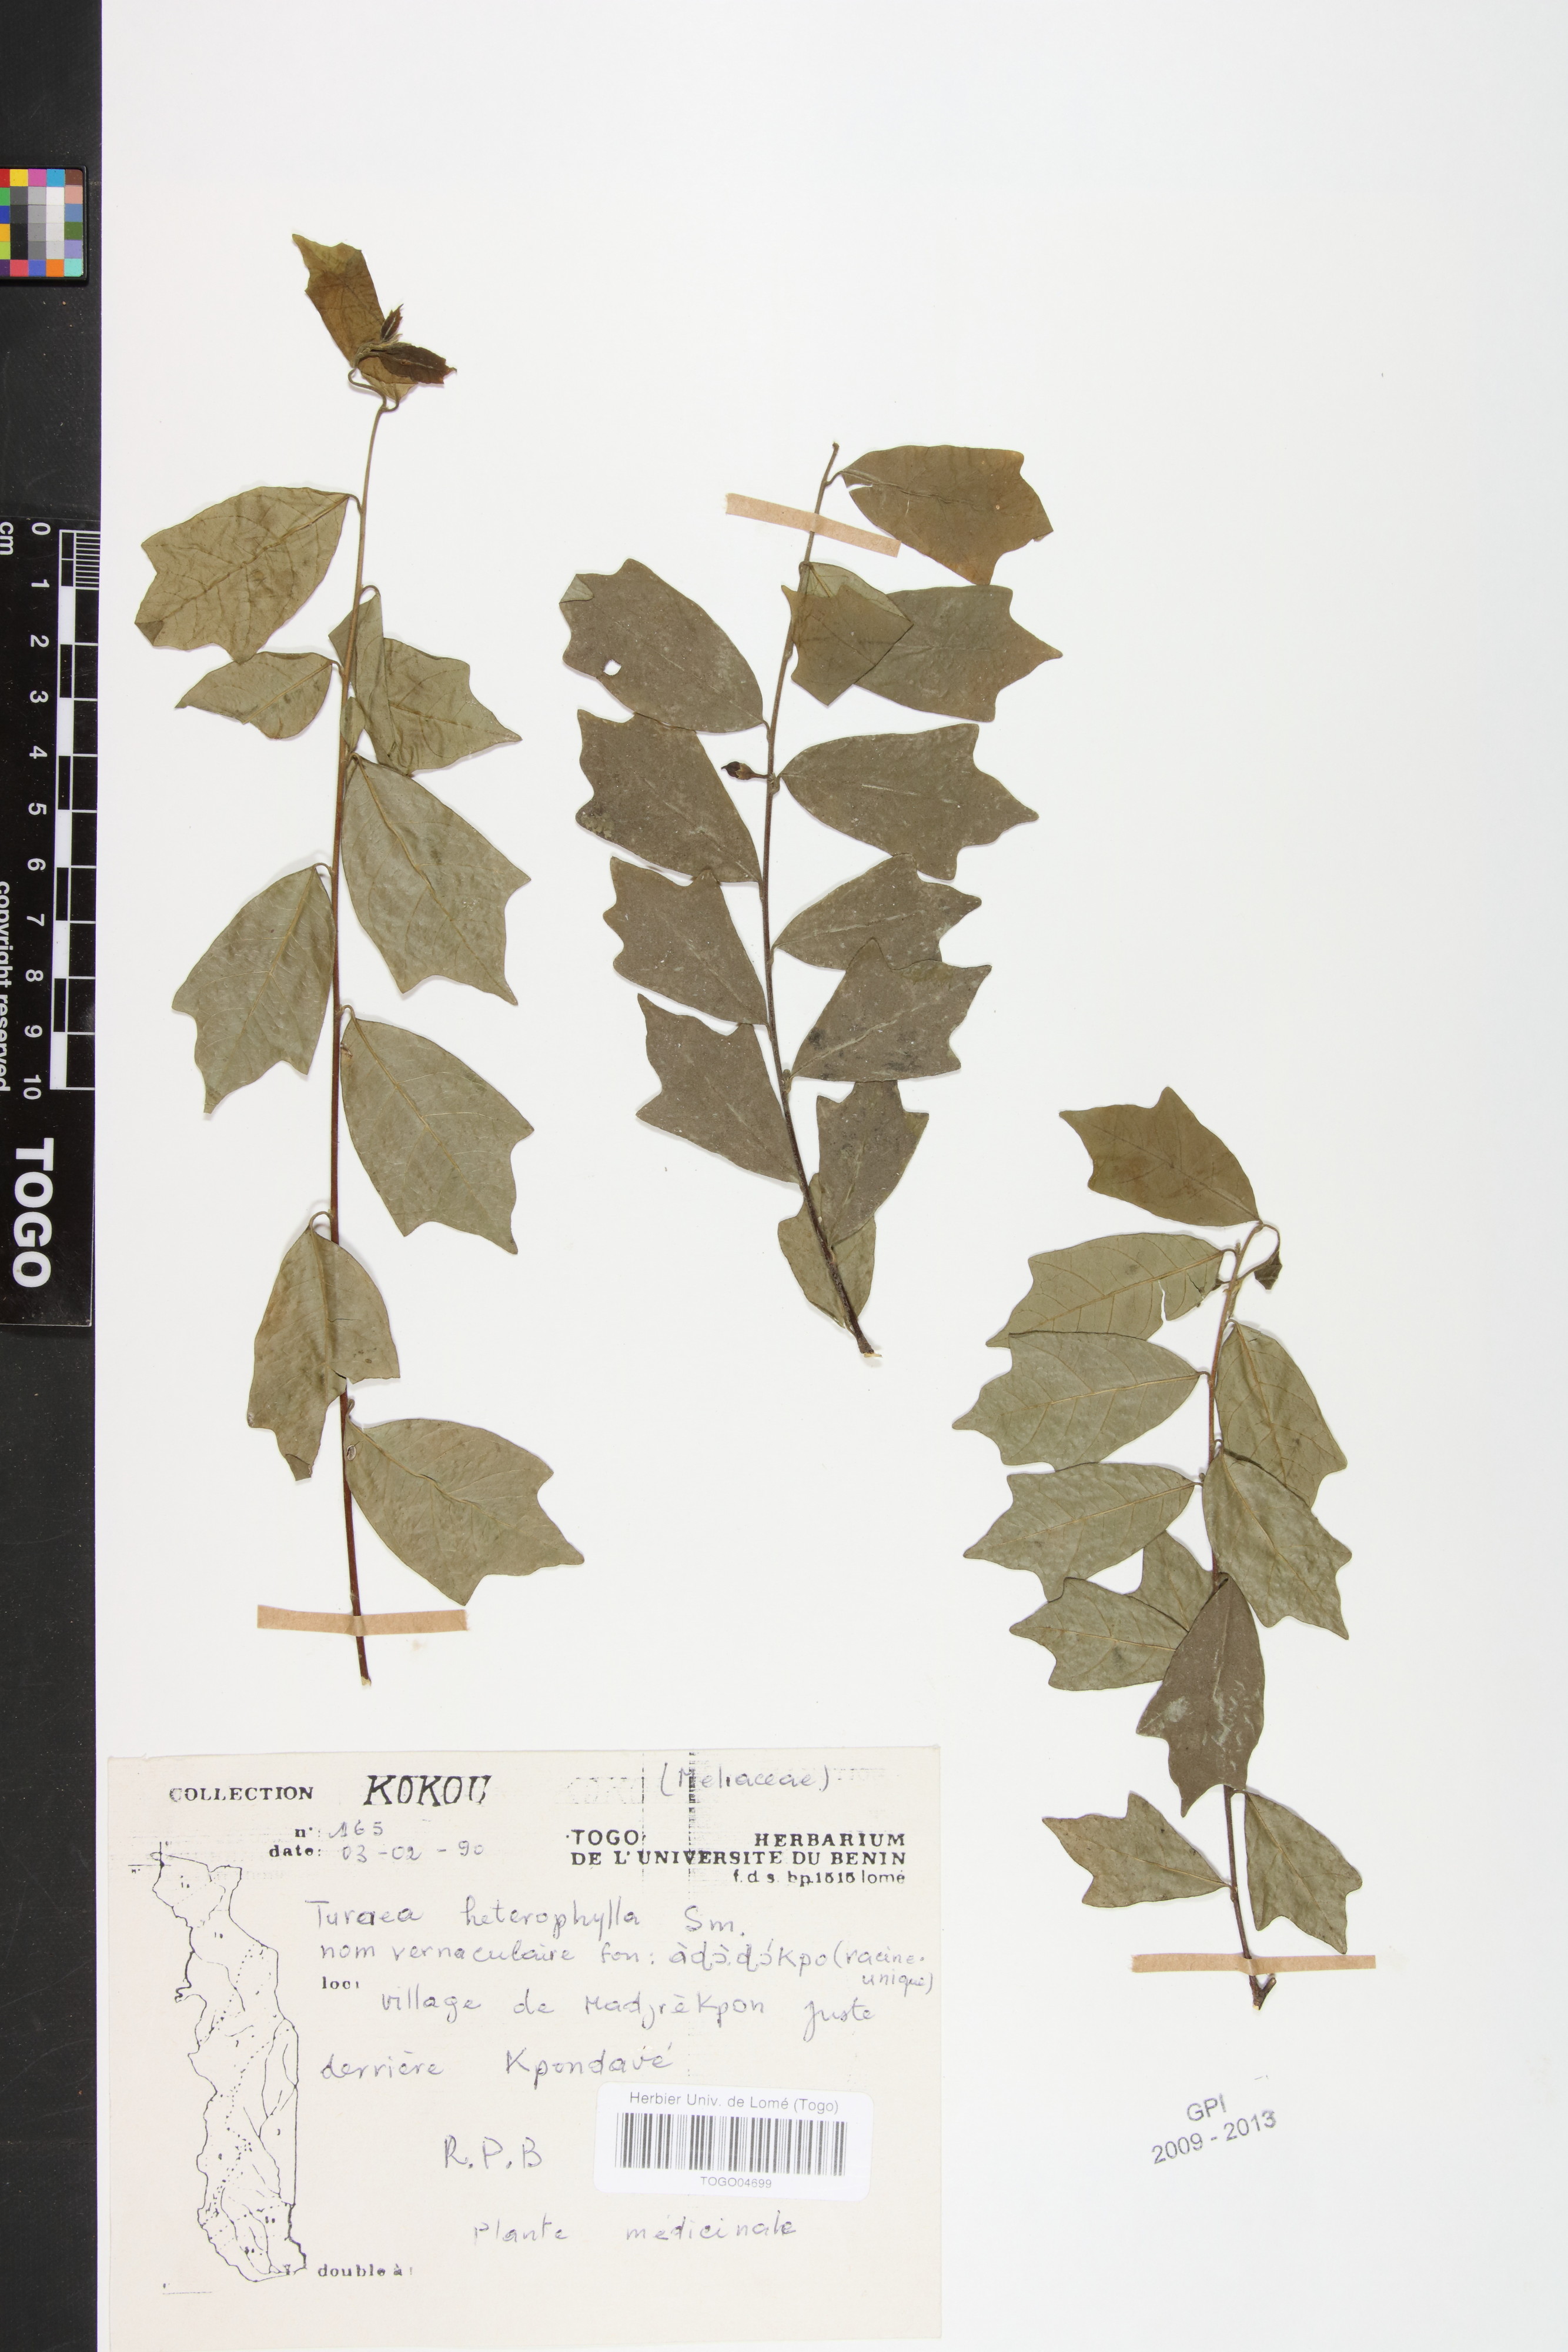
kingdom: Plantae
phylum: Tracheophyta
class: Magnoliopsida
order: Sapindales
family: Meliaceae
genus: Turraea
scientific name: Turraea heterophylla
